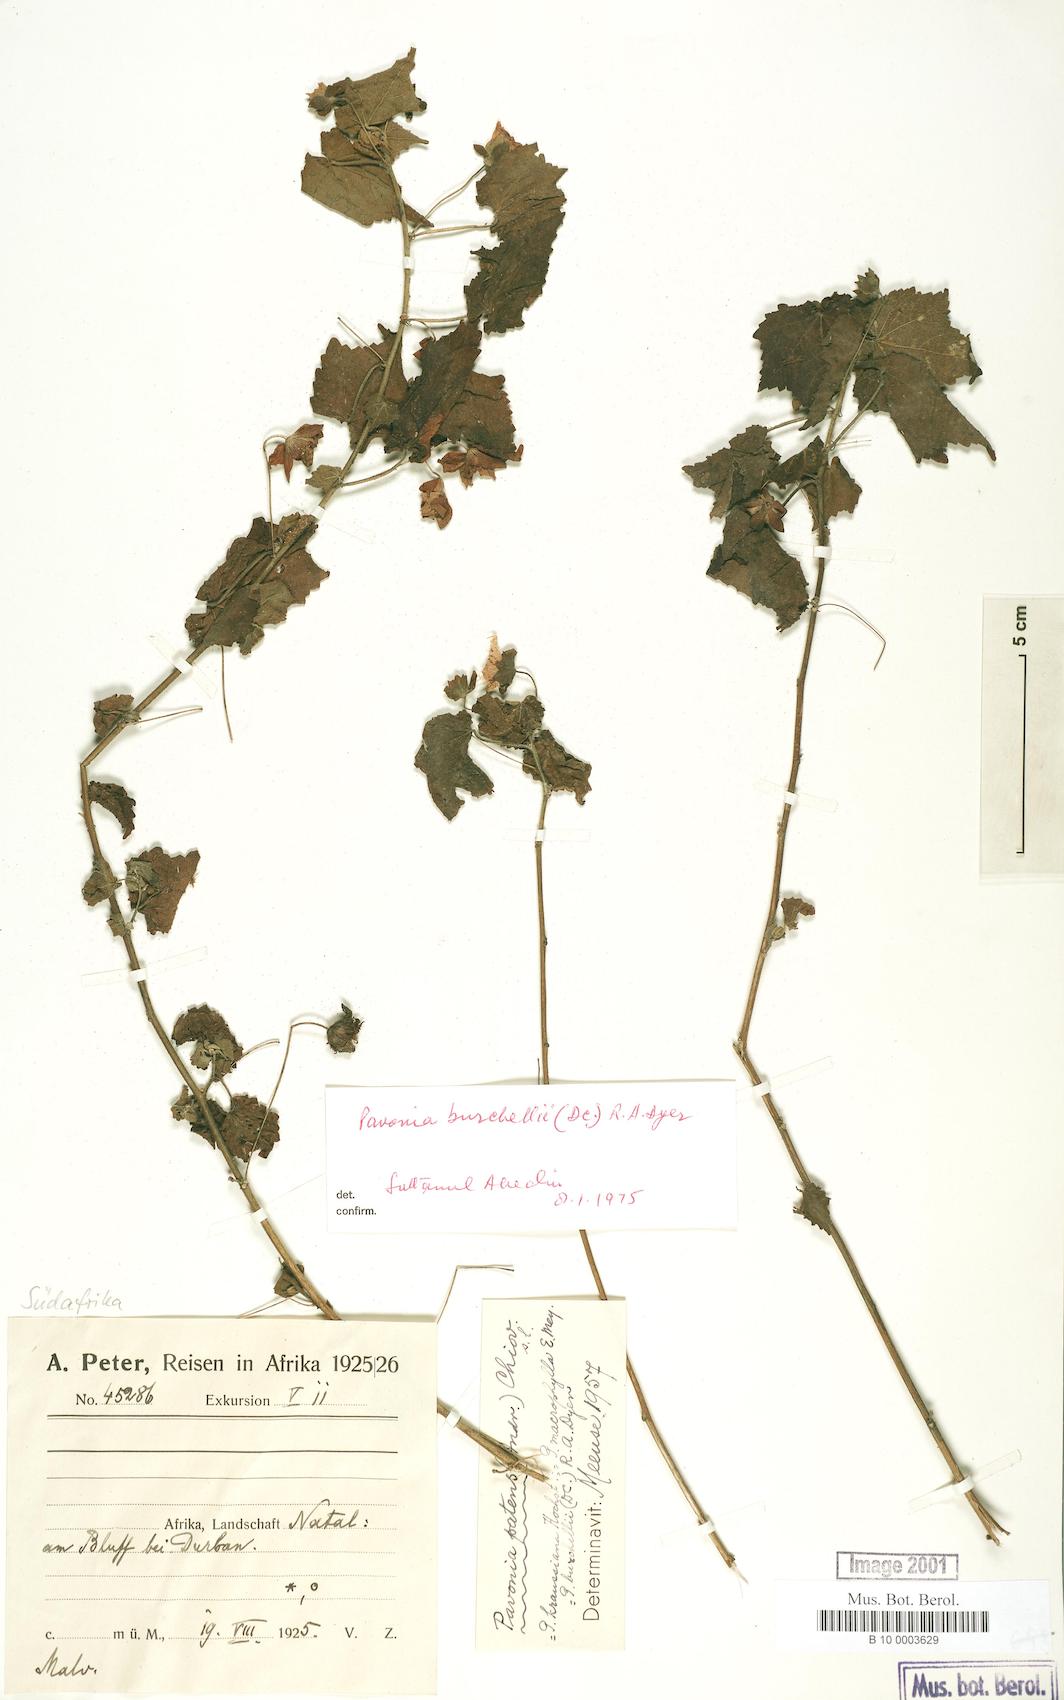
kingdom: Plantae
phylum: Tracheophyta
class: Magnoliopsida
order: Malvales
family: Malvaceae
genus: Pavonia
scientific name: Pavonia burchellii
